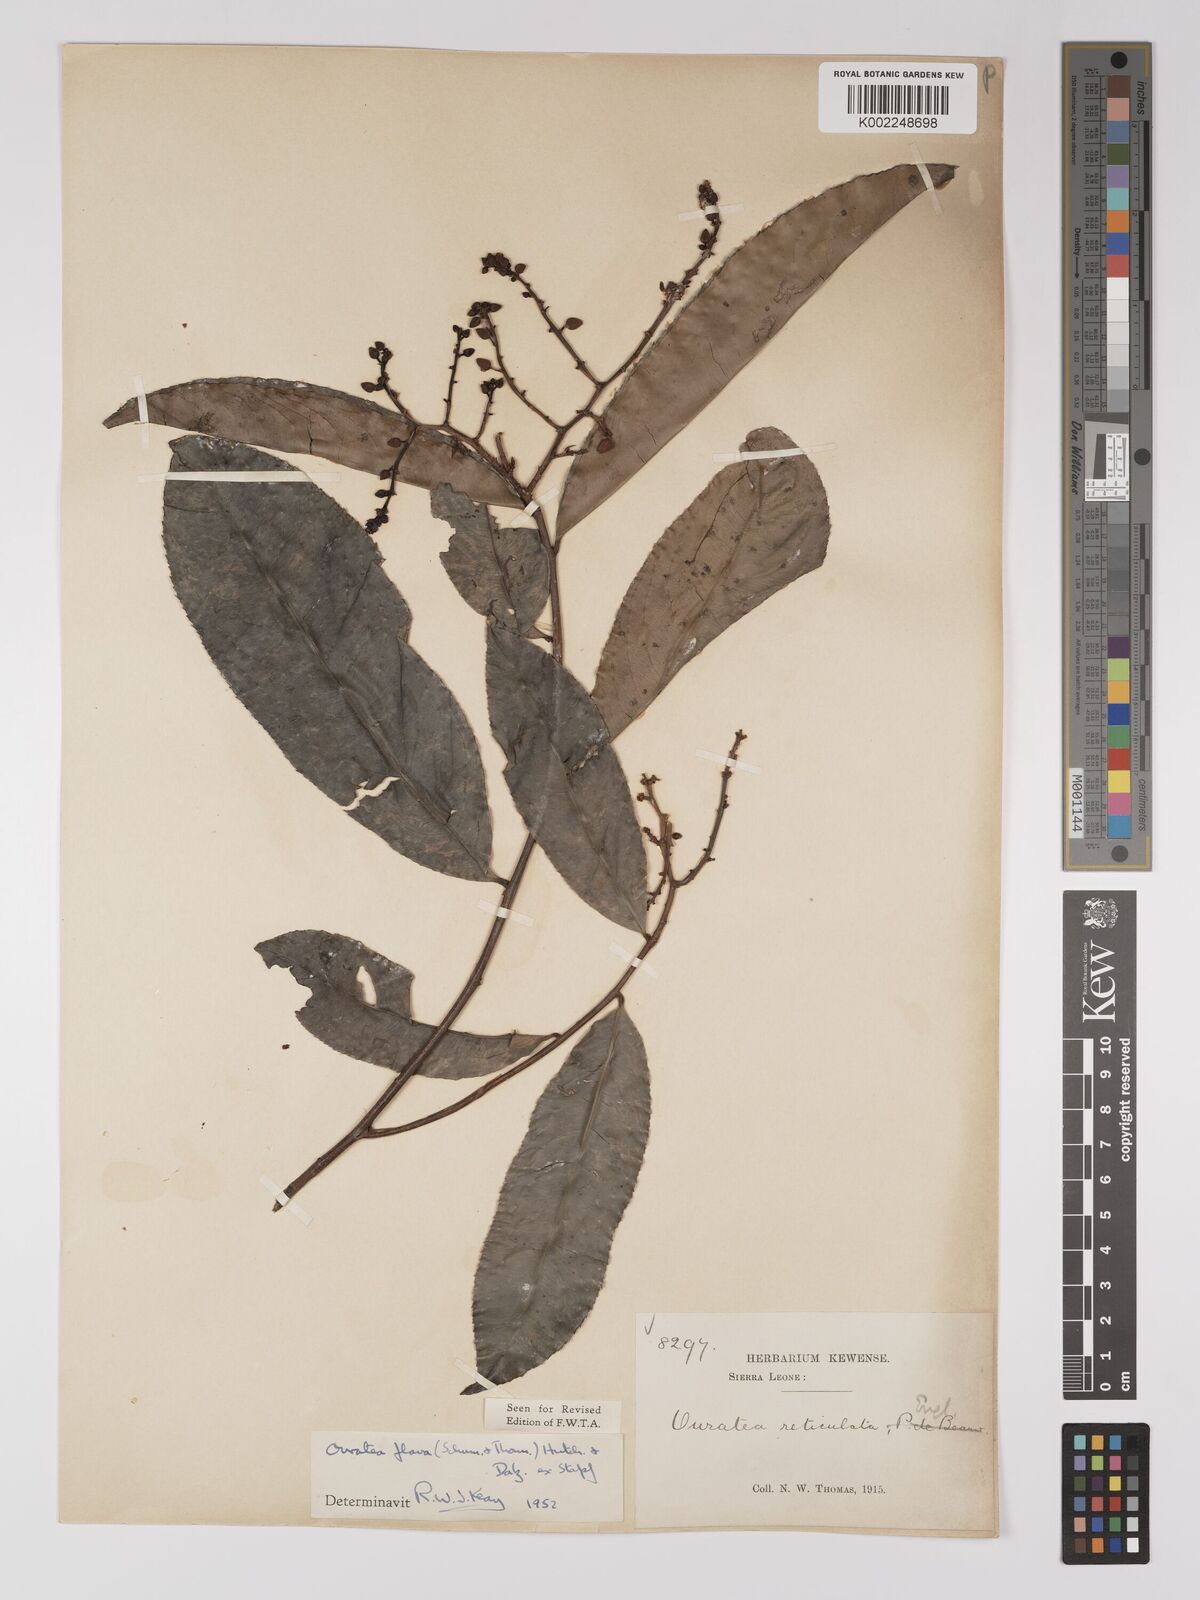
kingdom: Plantae
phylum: Tracheophyta
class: Magnoliopsida
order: Malpighiales
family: Ochnaceae
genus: Campylospermum
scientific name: Campylospermum flavum
